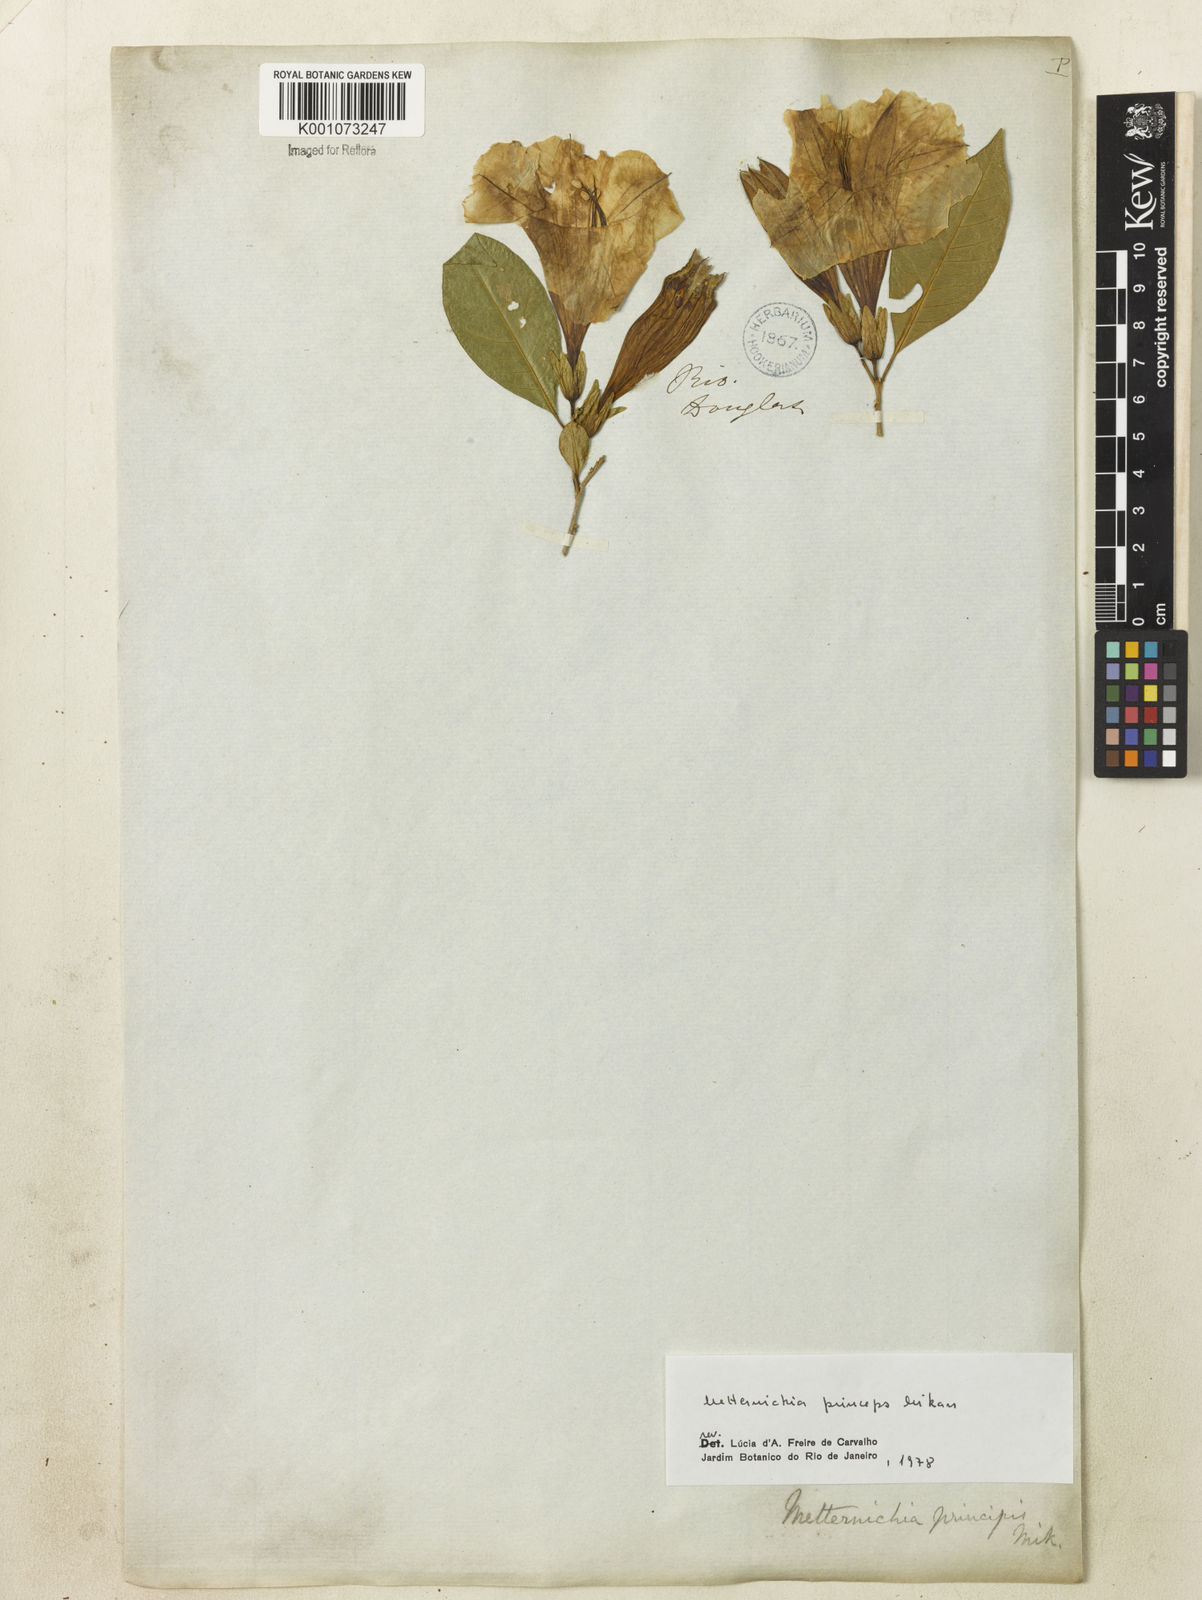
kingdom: Plantae
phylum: Tracheophyta
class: Magnoliopsida
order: Solanales
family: Solanaceae
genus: Metternichia
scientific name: Metternichia
